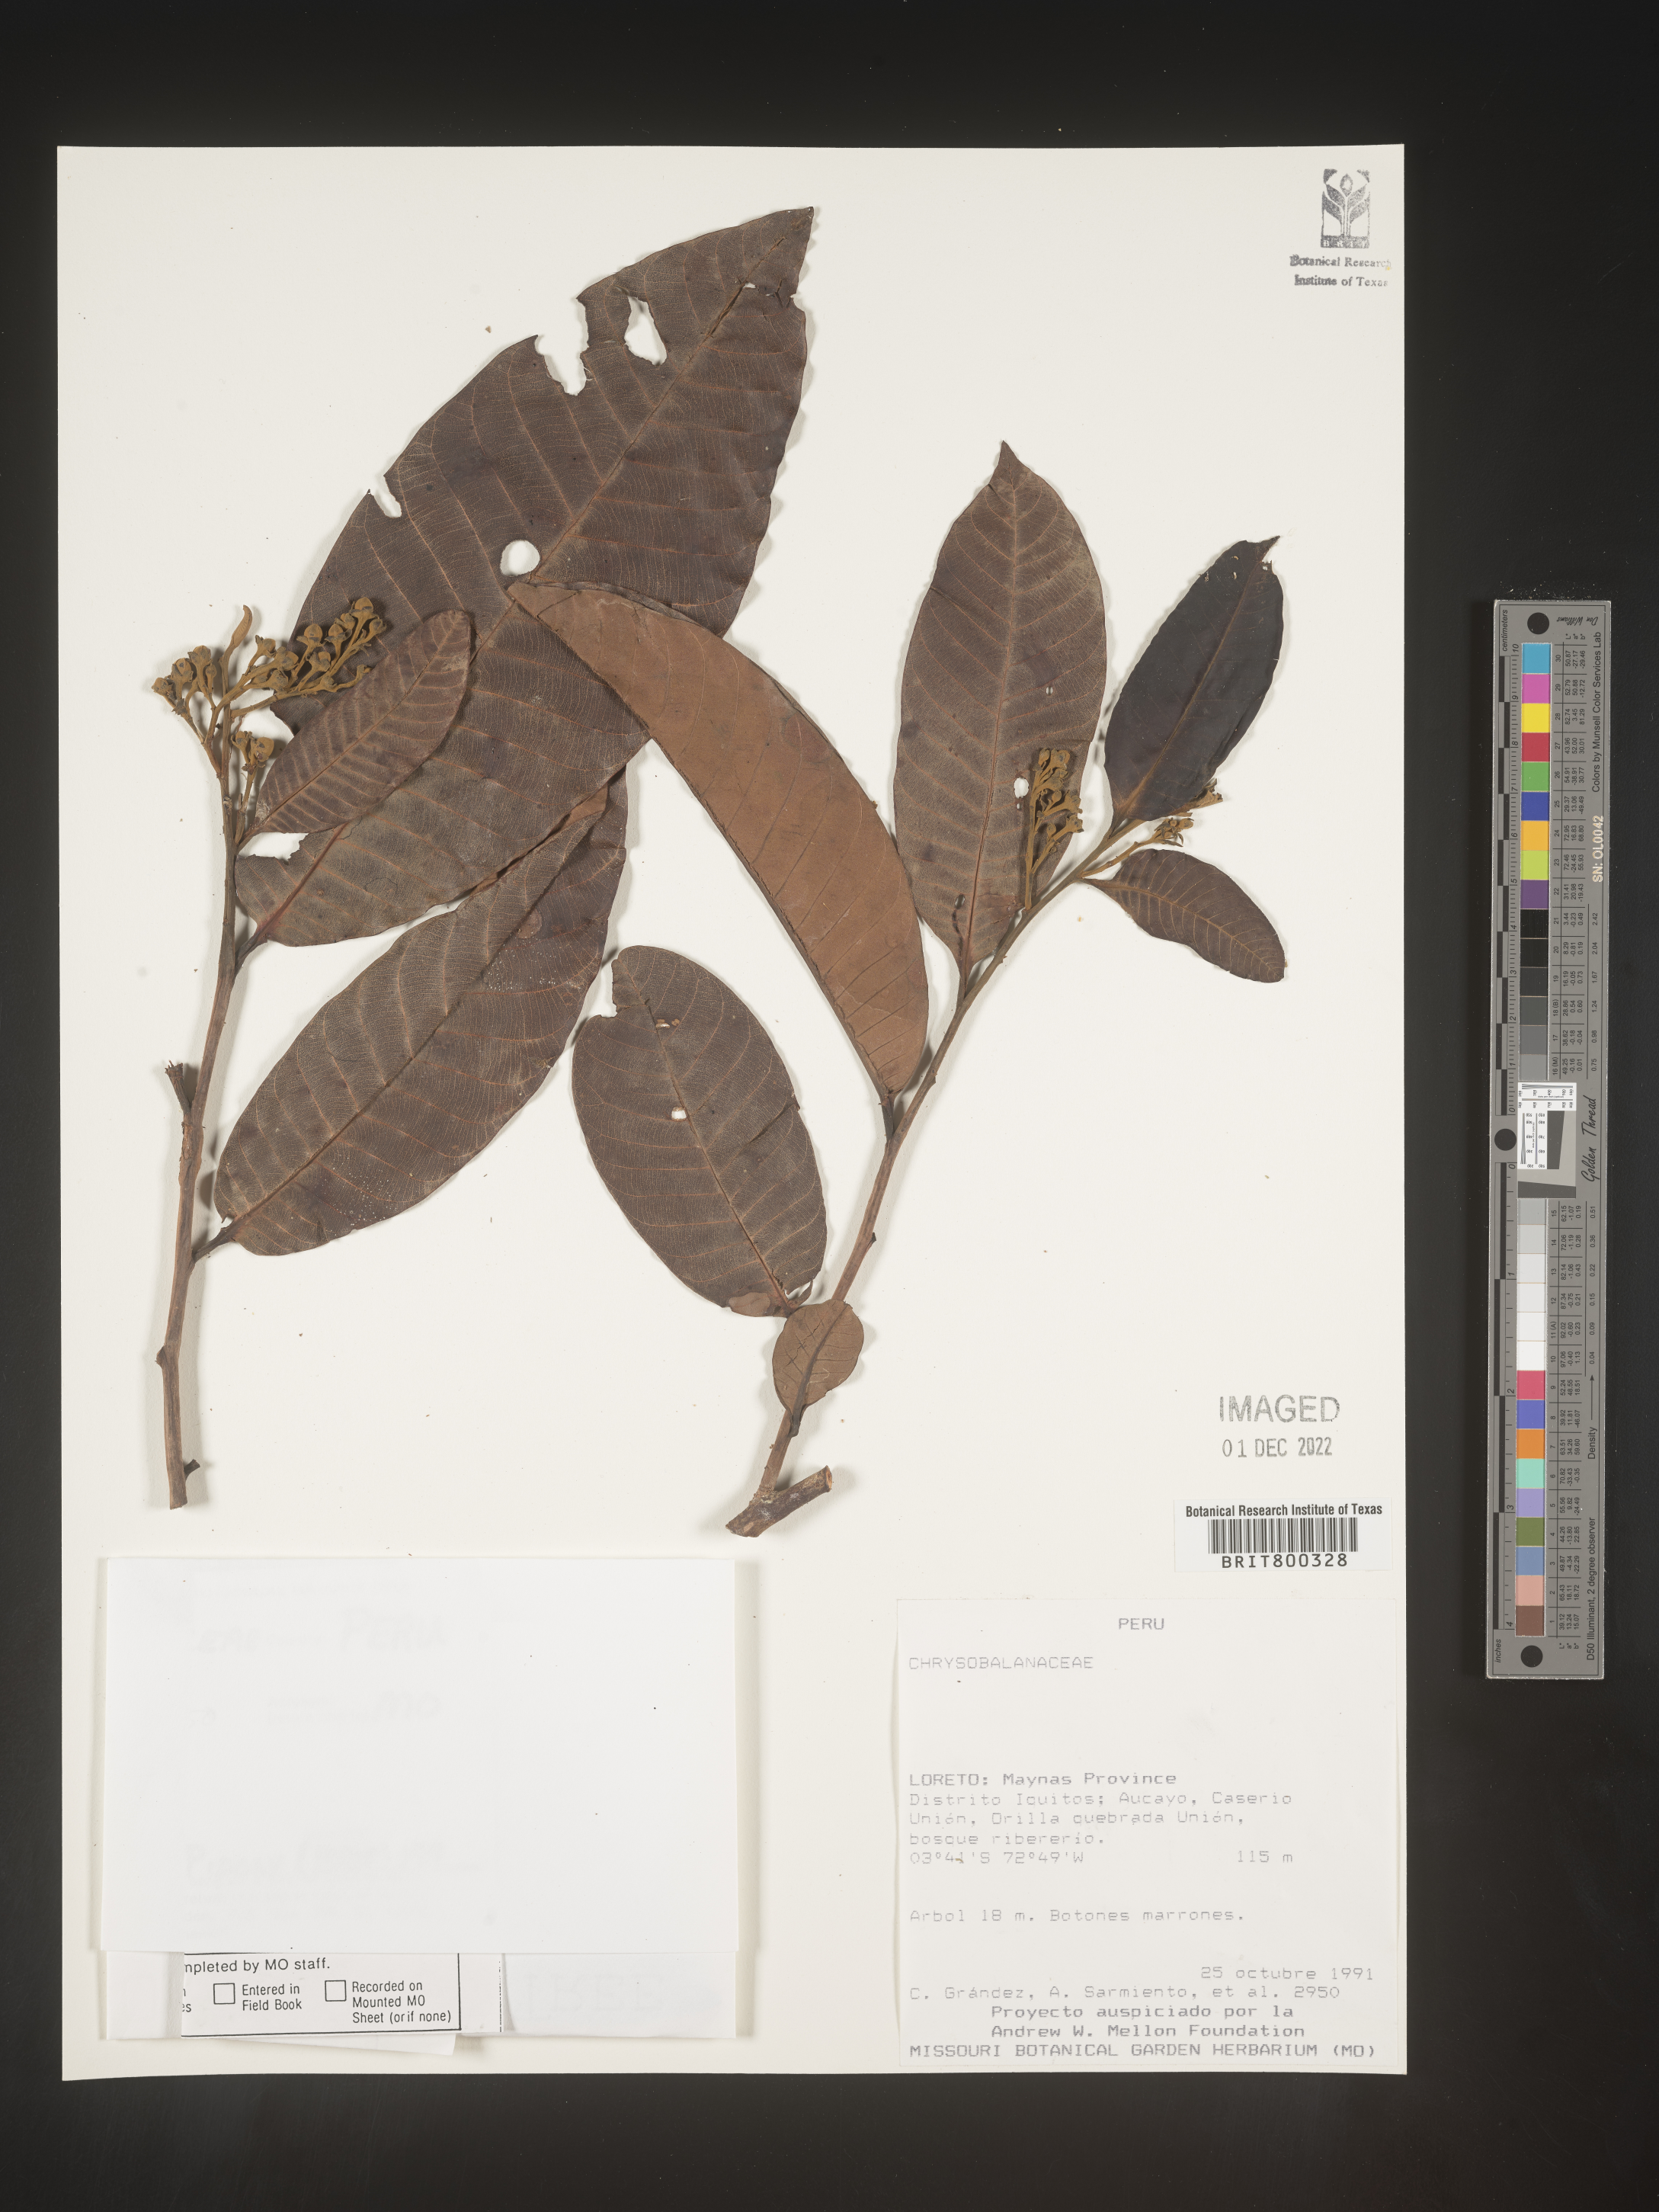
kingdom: Plantae
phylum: Tracheophyta
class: Magnoliopsida
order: Malpighiales
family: Chrysobalanaceae
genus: Licania
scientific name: Licania
